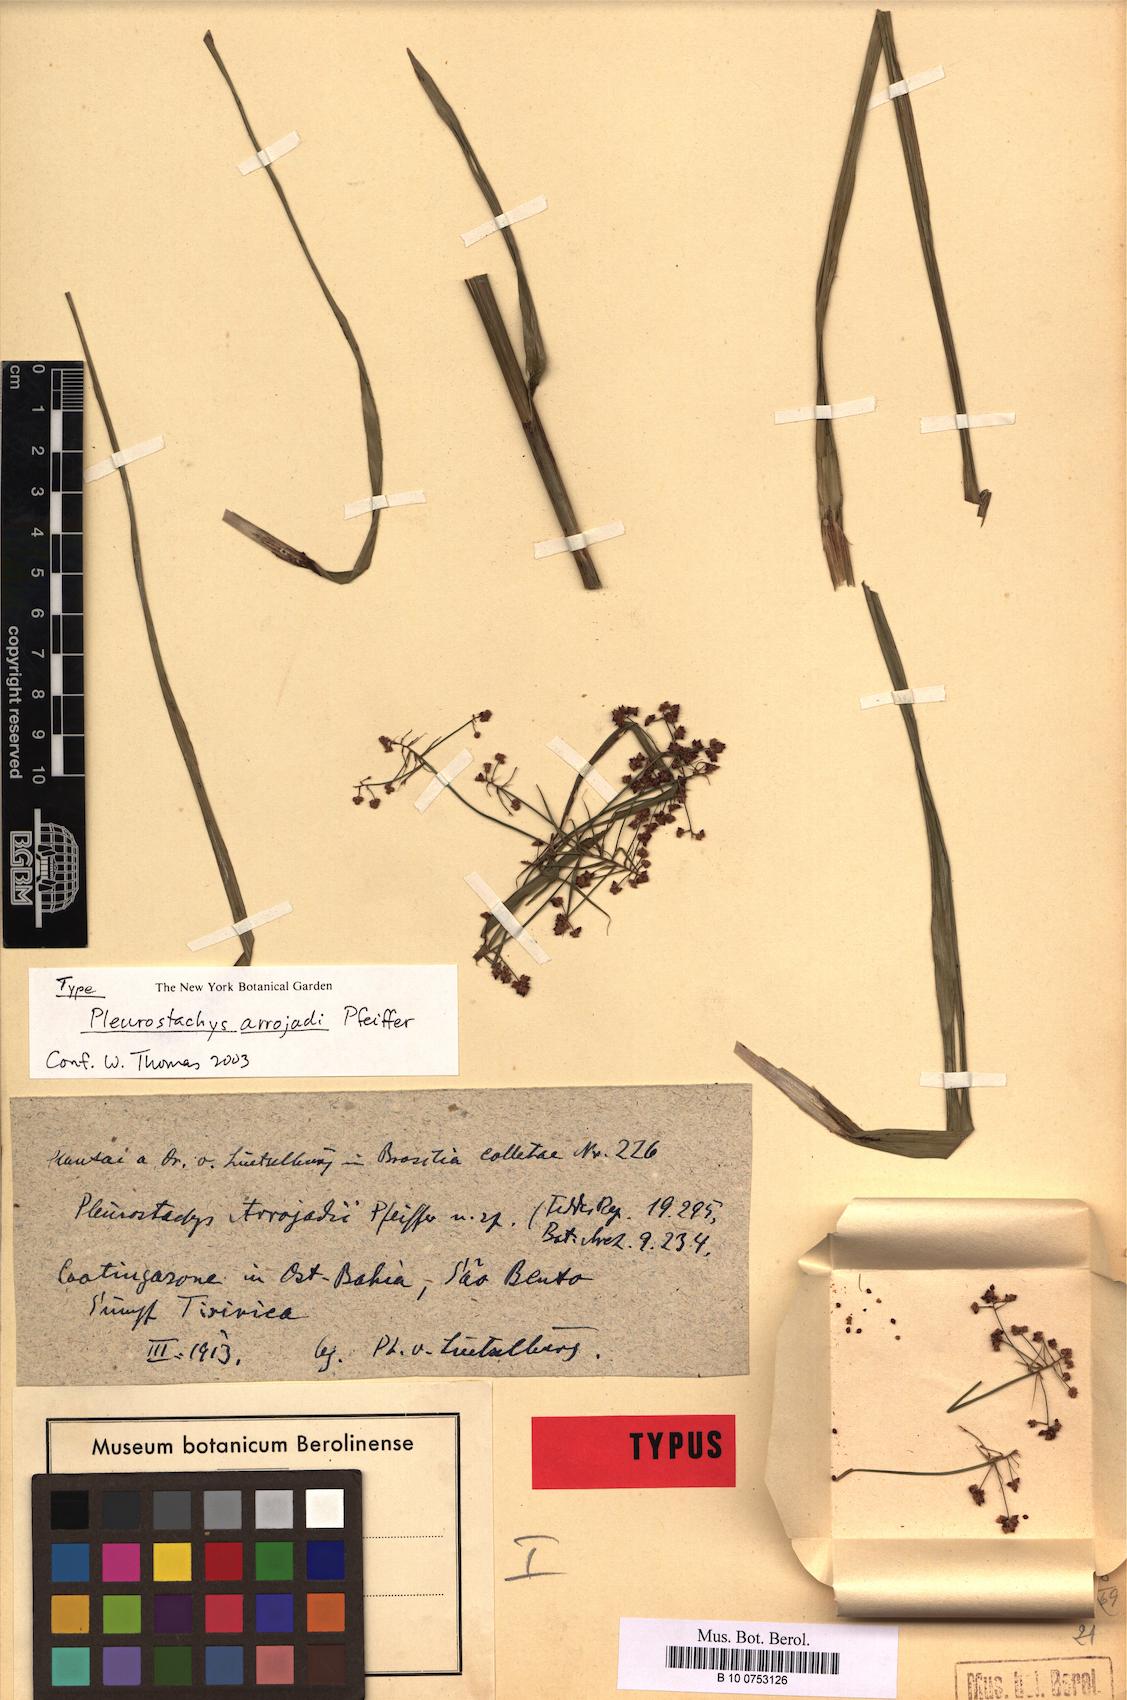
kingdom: Plantae
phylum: Tracheophyta
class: Liliopsida
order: Poales
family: Cyperaceae
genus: Rhynchospora
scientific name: Rhynchospora foliosa
